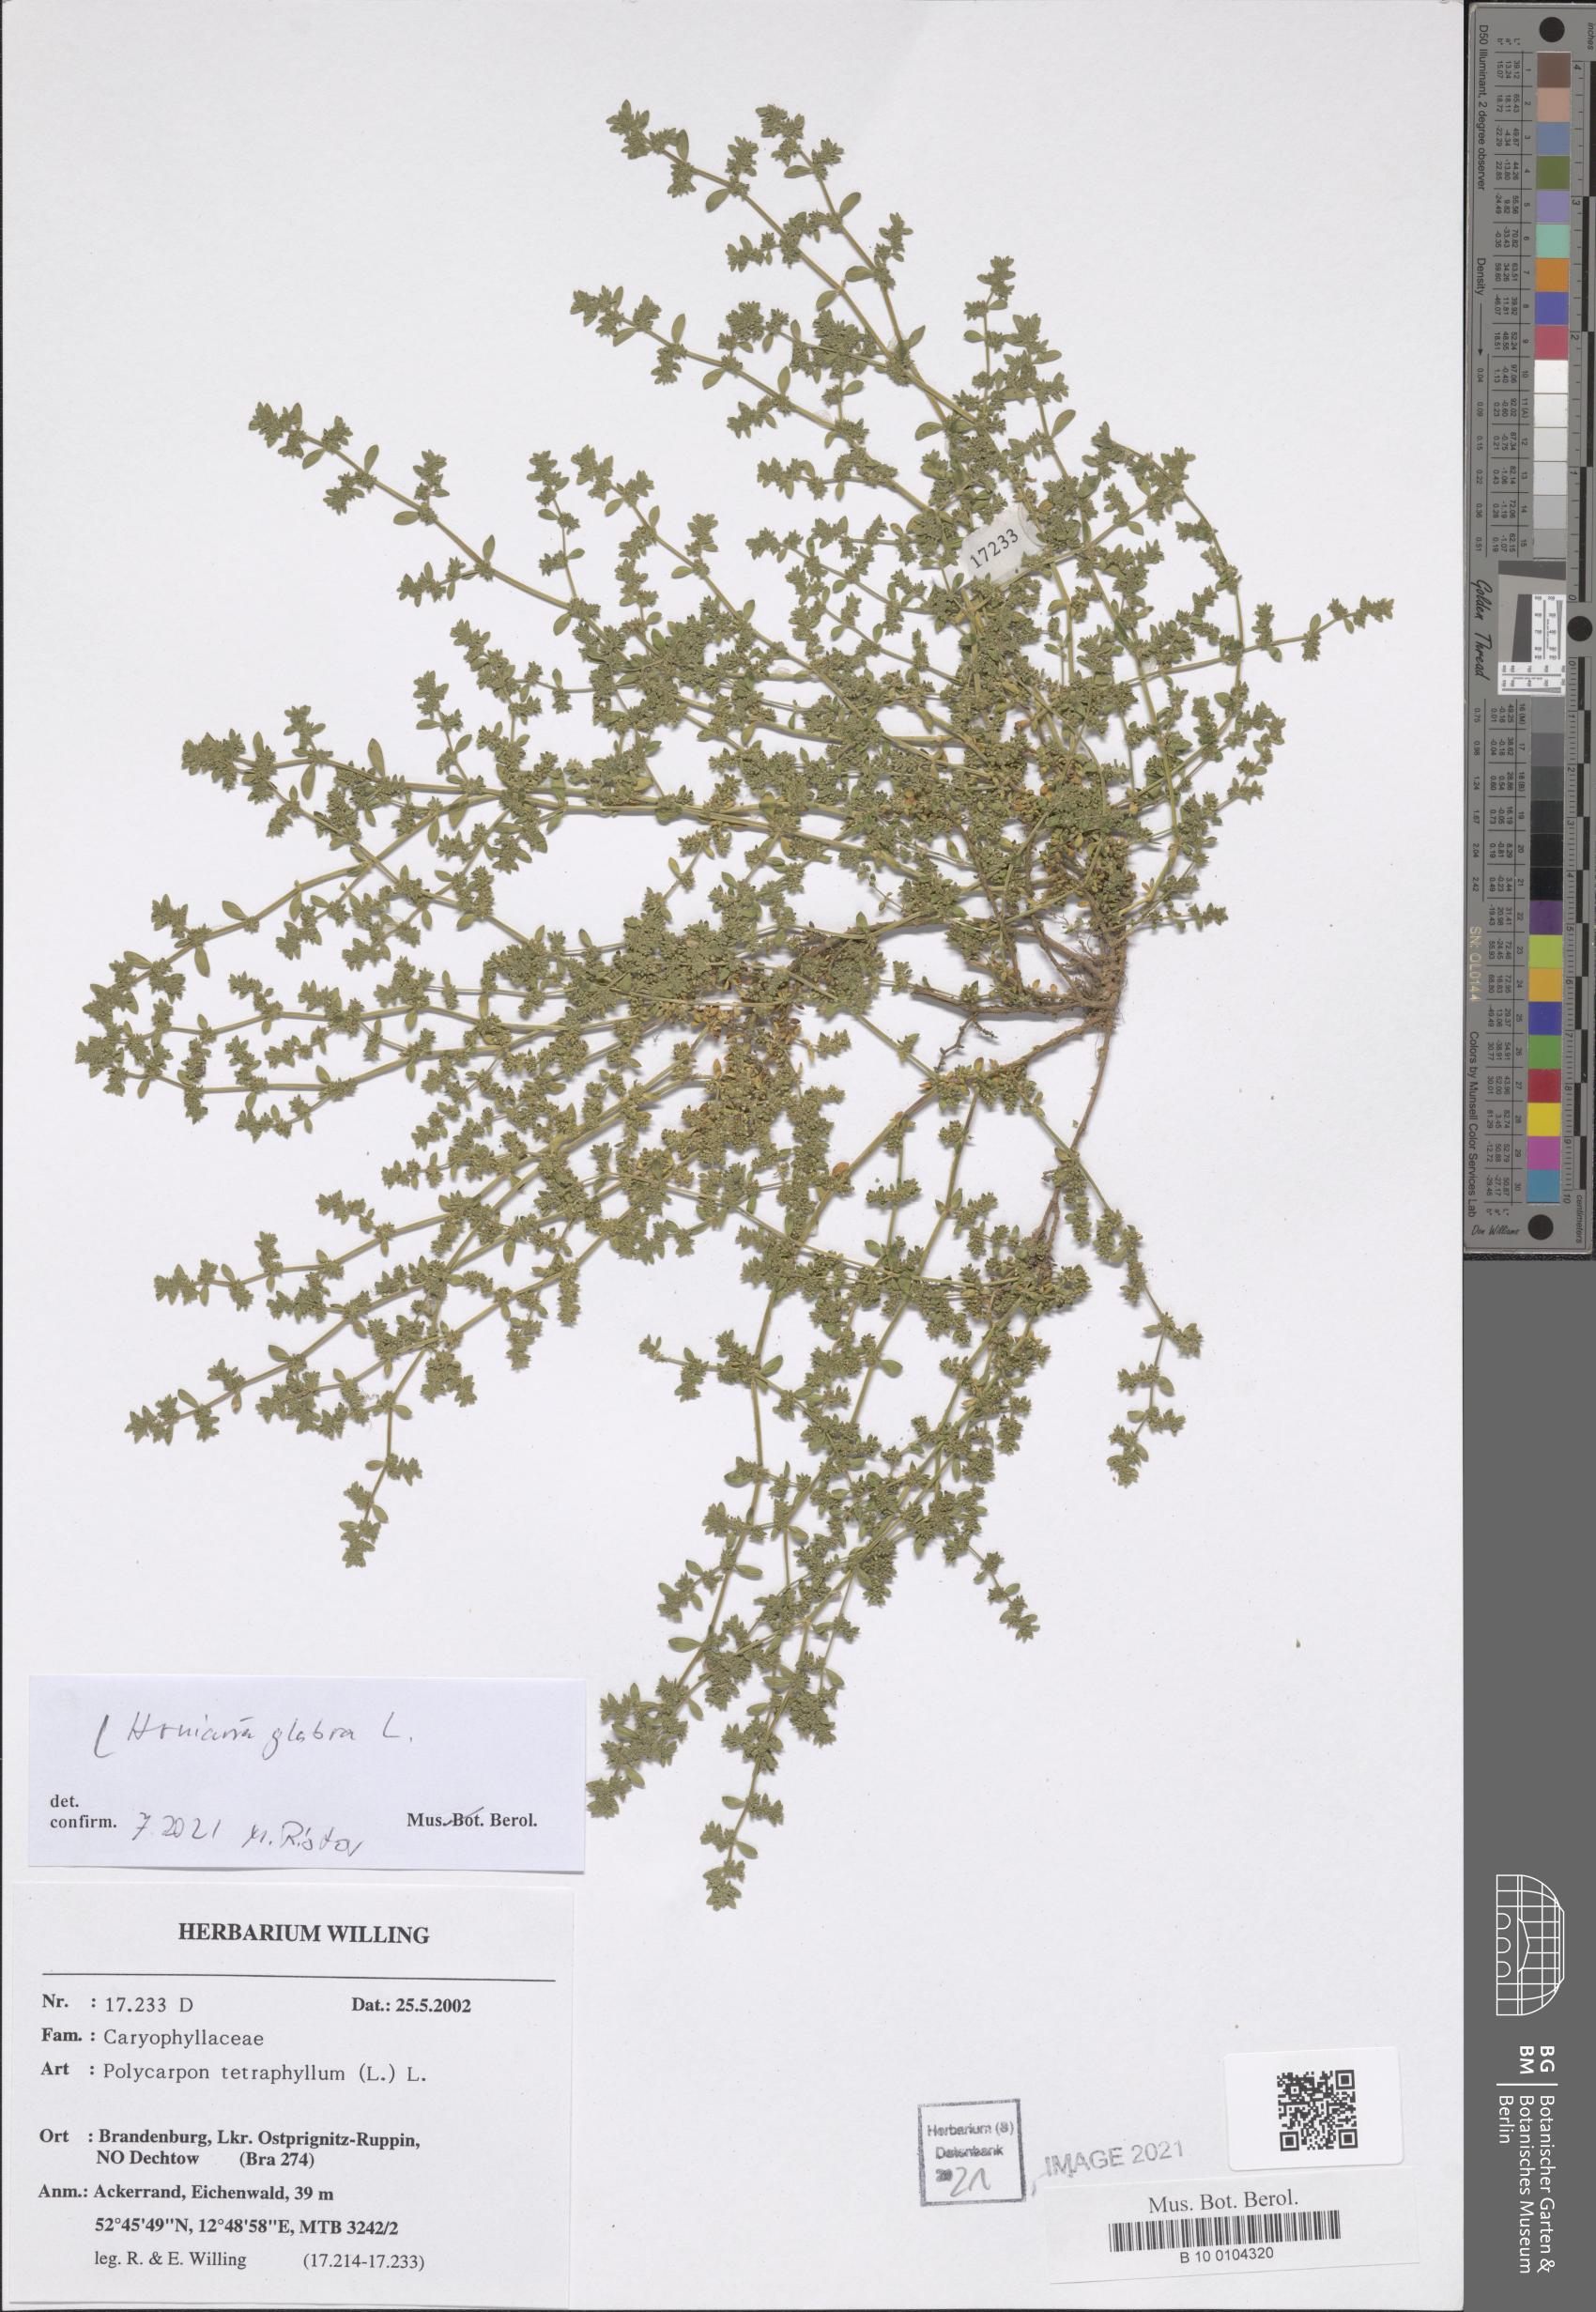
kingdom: Plantae
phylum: Tracheophyta
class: Magnoliopsida
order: Caryophyllales
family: Caryophyllaceae
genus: Herniaria
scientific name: Herniaria glabra
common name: Smooth rupturewort
